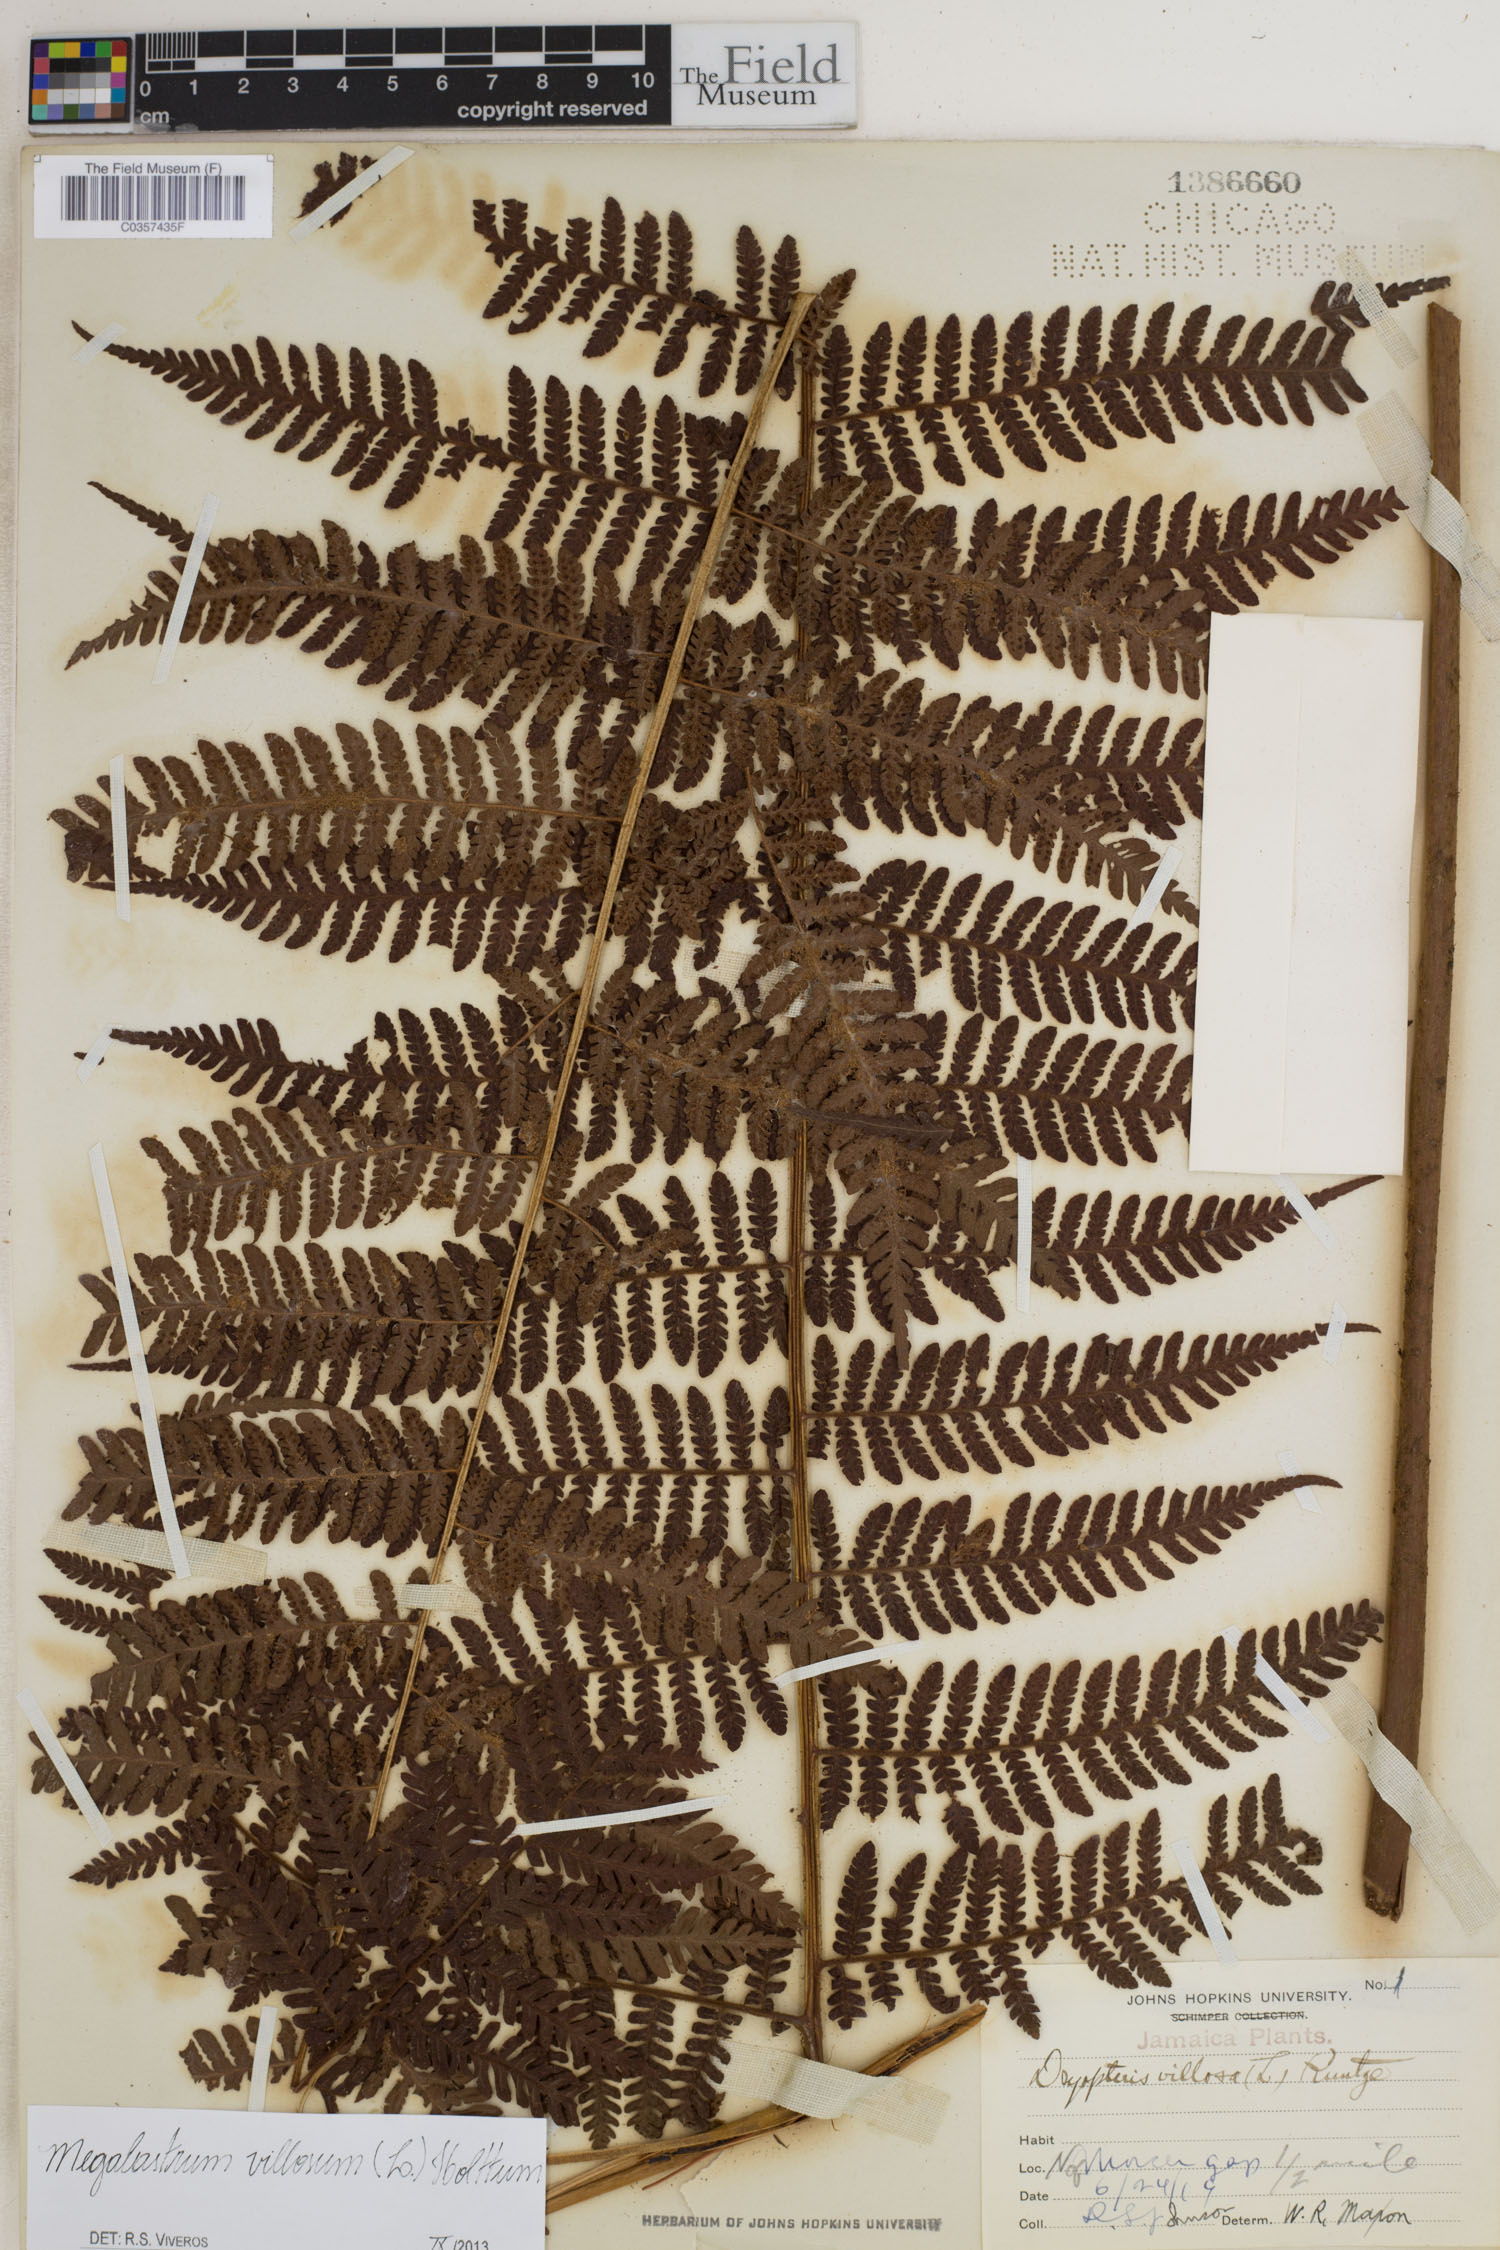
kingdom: Plantae
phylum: Tracheophyta
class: Polypodiopsida
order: Polypodiales
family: Dryopteridaceae
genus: Megalastrum
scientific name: Megalastrum villosum
